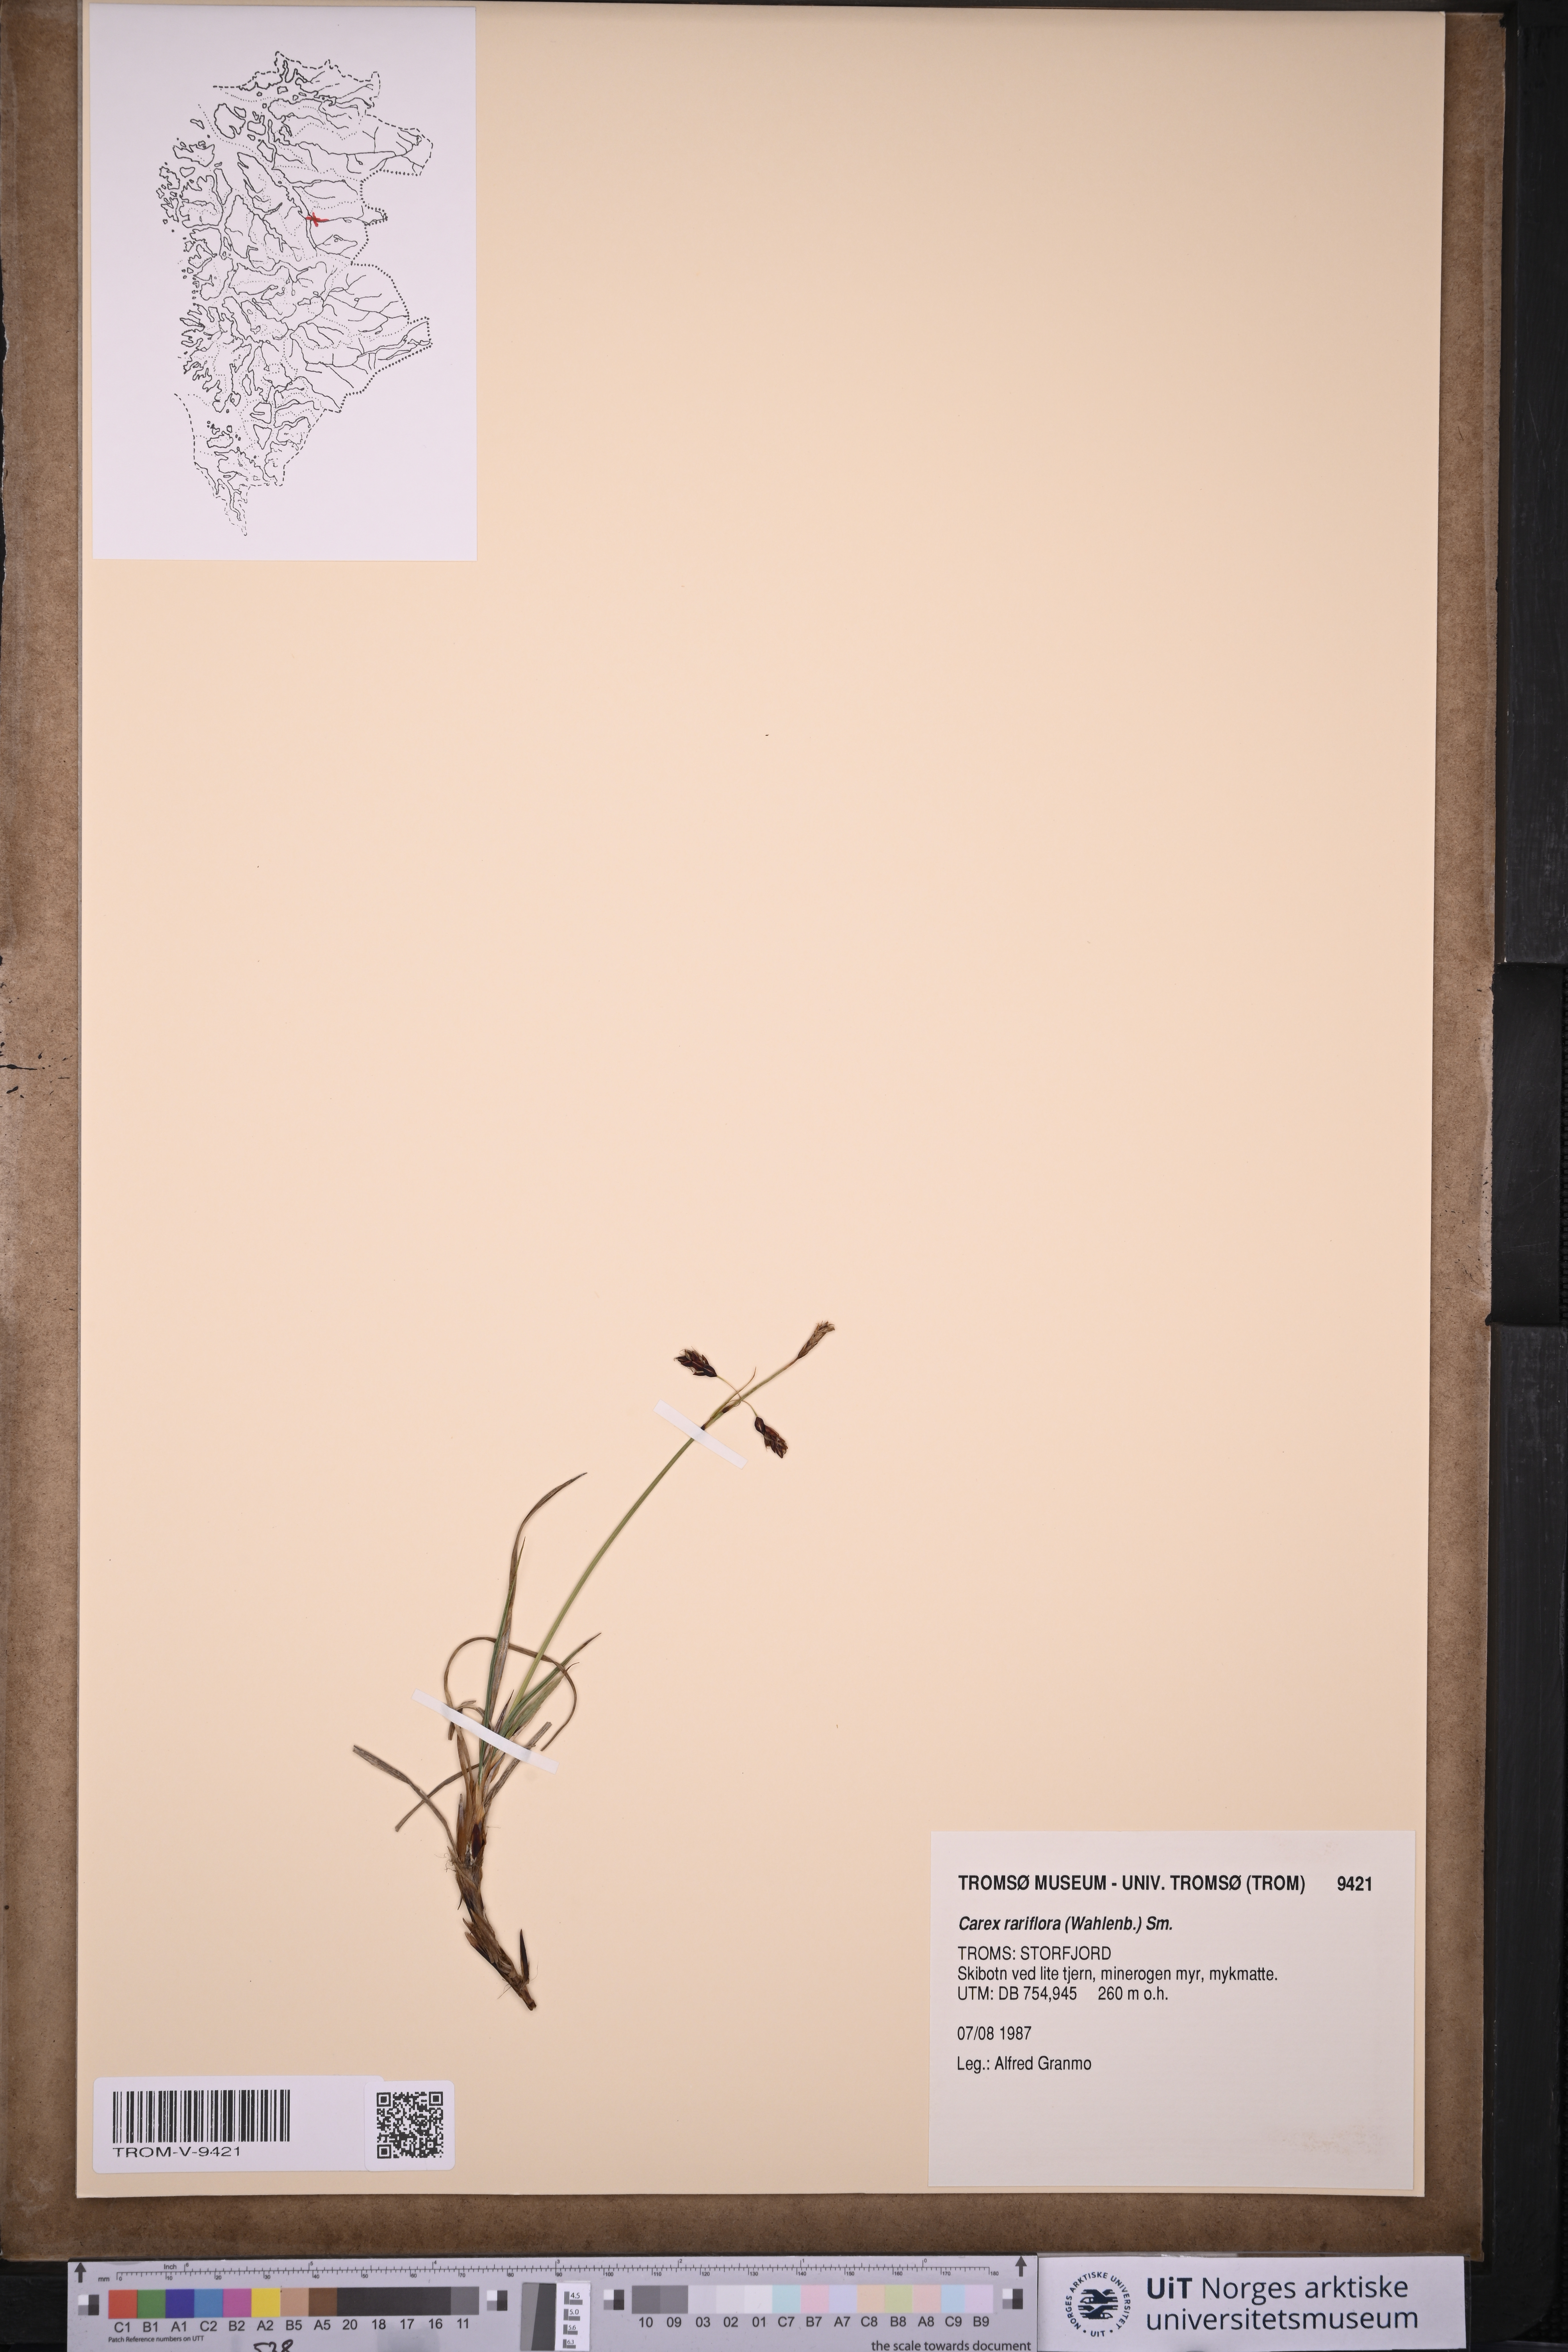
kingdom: Plantae
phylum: Tracheophyta
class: Liliopsida
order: Poales
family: Cyperaceae
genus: Carex
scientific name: Carex rariflora
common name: Loose-flowered alpine sedge
